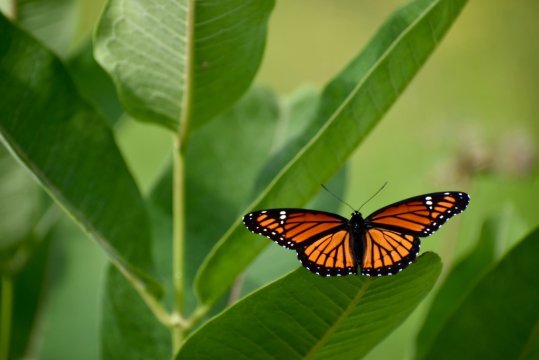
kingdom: Animalia
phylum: Arthropoda
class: Insecta
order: Lepidoptera
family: Nymphalidae
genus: Limenitis
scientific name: Limenitis archippus
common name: Viceroy
